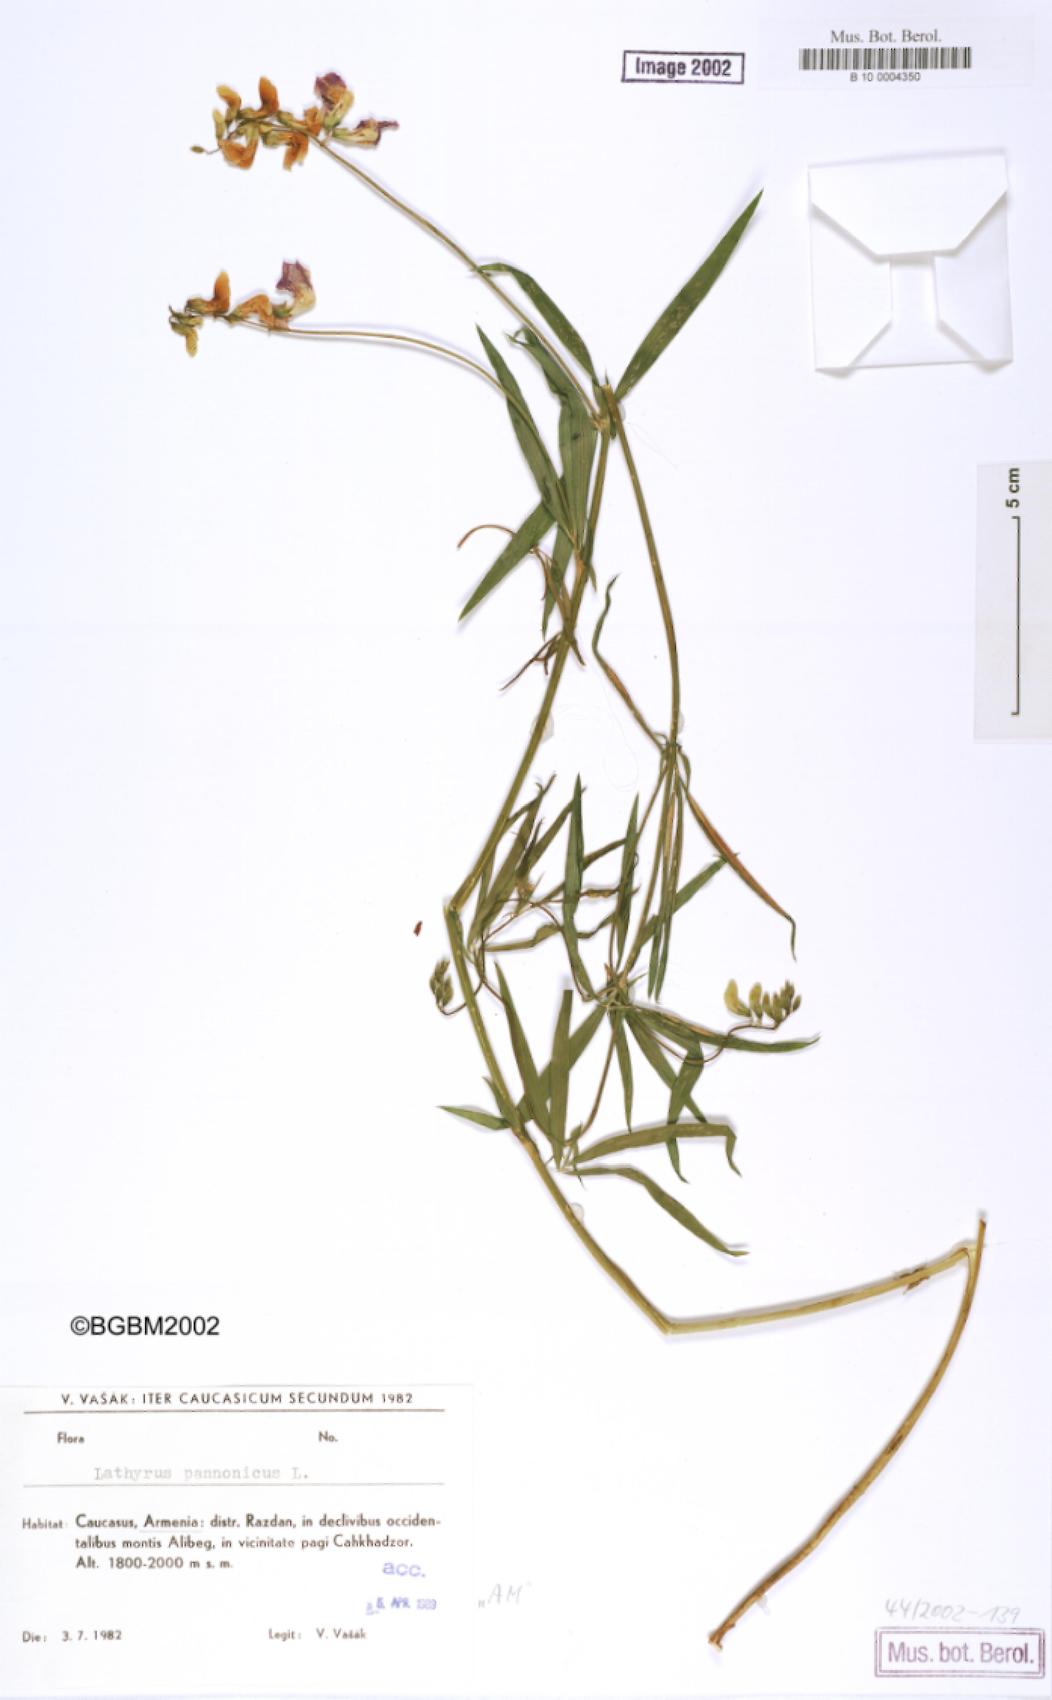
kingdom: Plantae
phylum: Tracheophyta
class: Magnoliopsida
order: Fabales
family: Fabaceae
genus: Lathyrus
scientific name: Lathyrus pannonicus
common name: Pea
